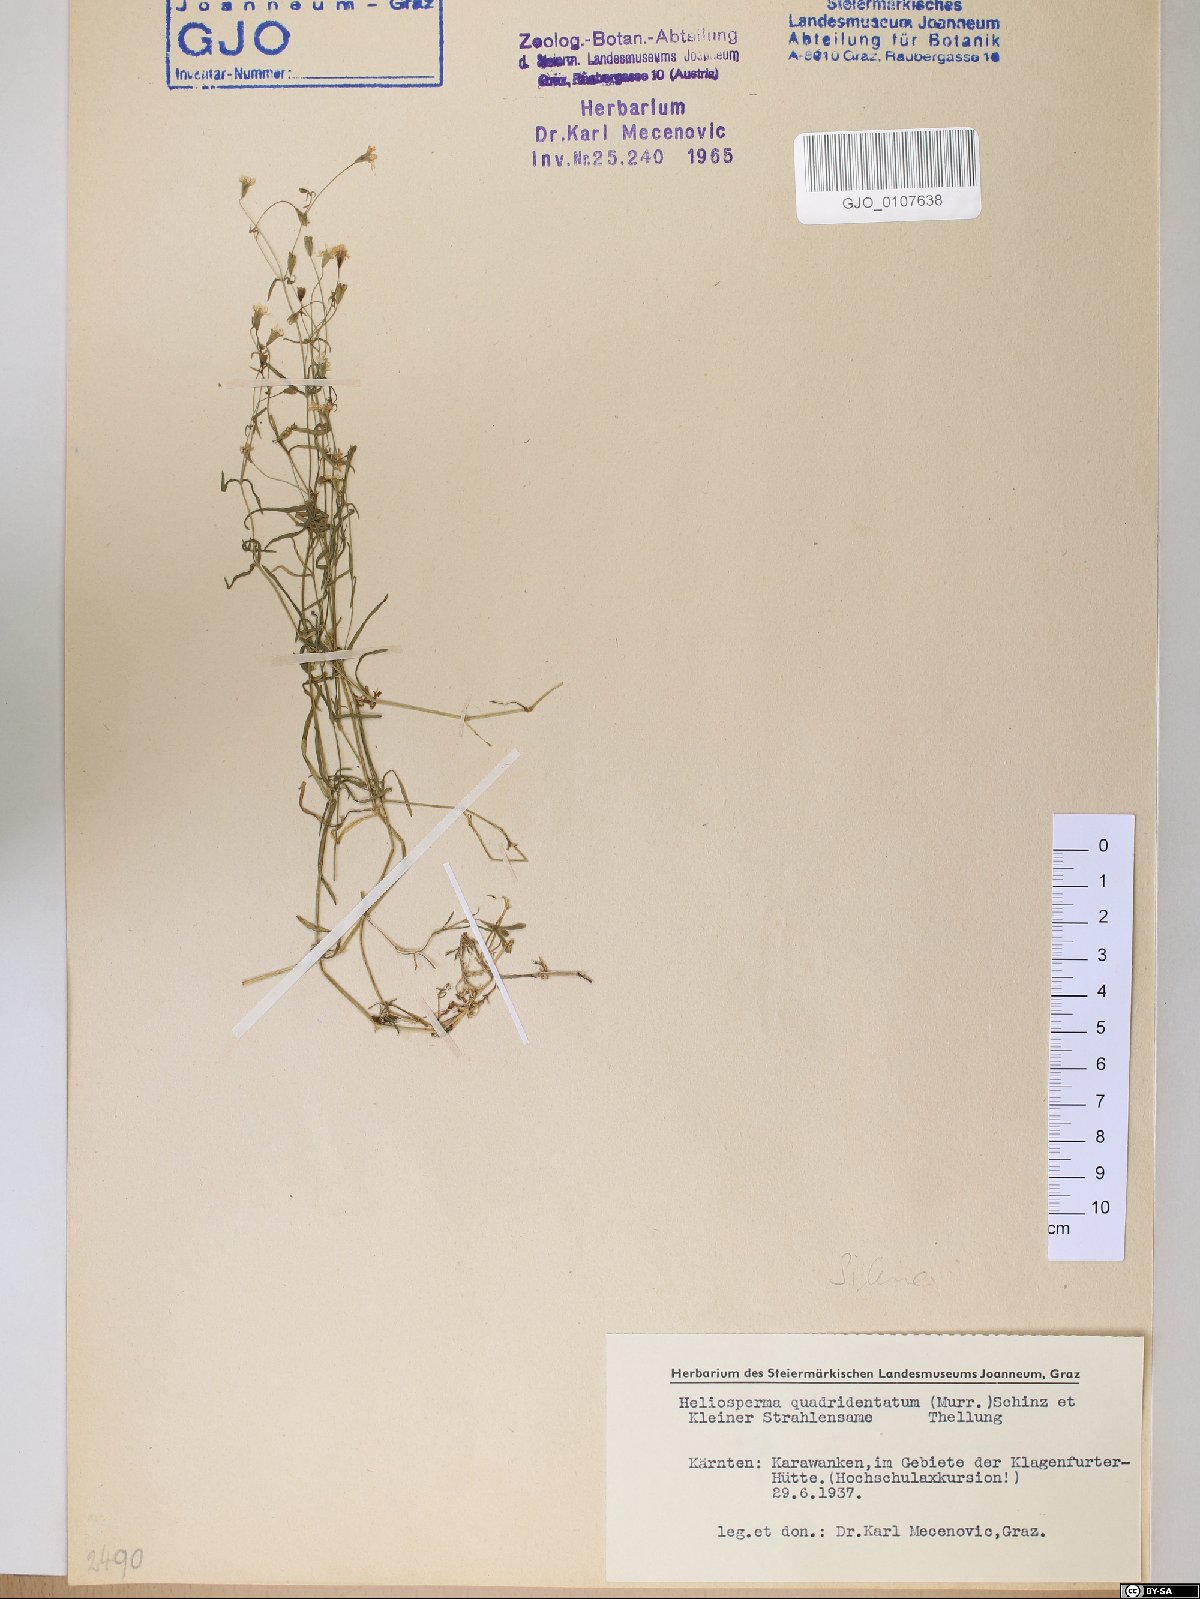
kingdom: Plantae
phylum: Tracheophyta
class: Magnoliopsida
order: Caryophyllales
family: Caryophyllaceae
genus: Heliosperma
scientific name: Heliosperma alpestre
